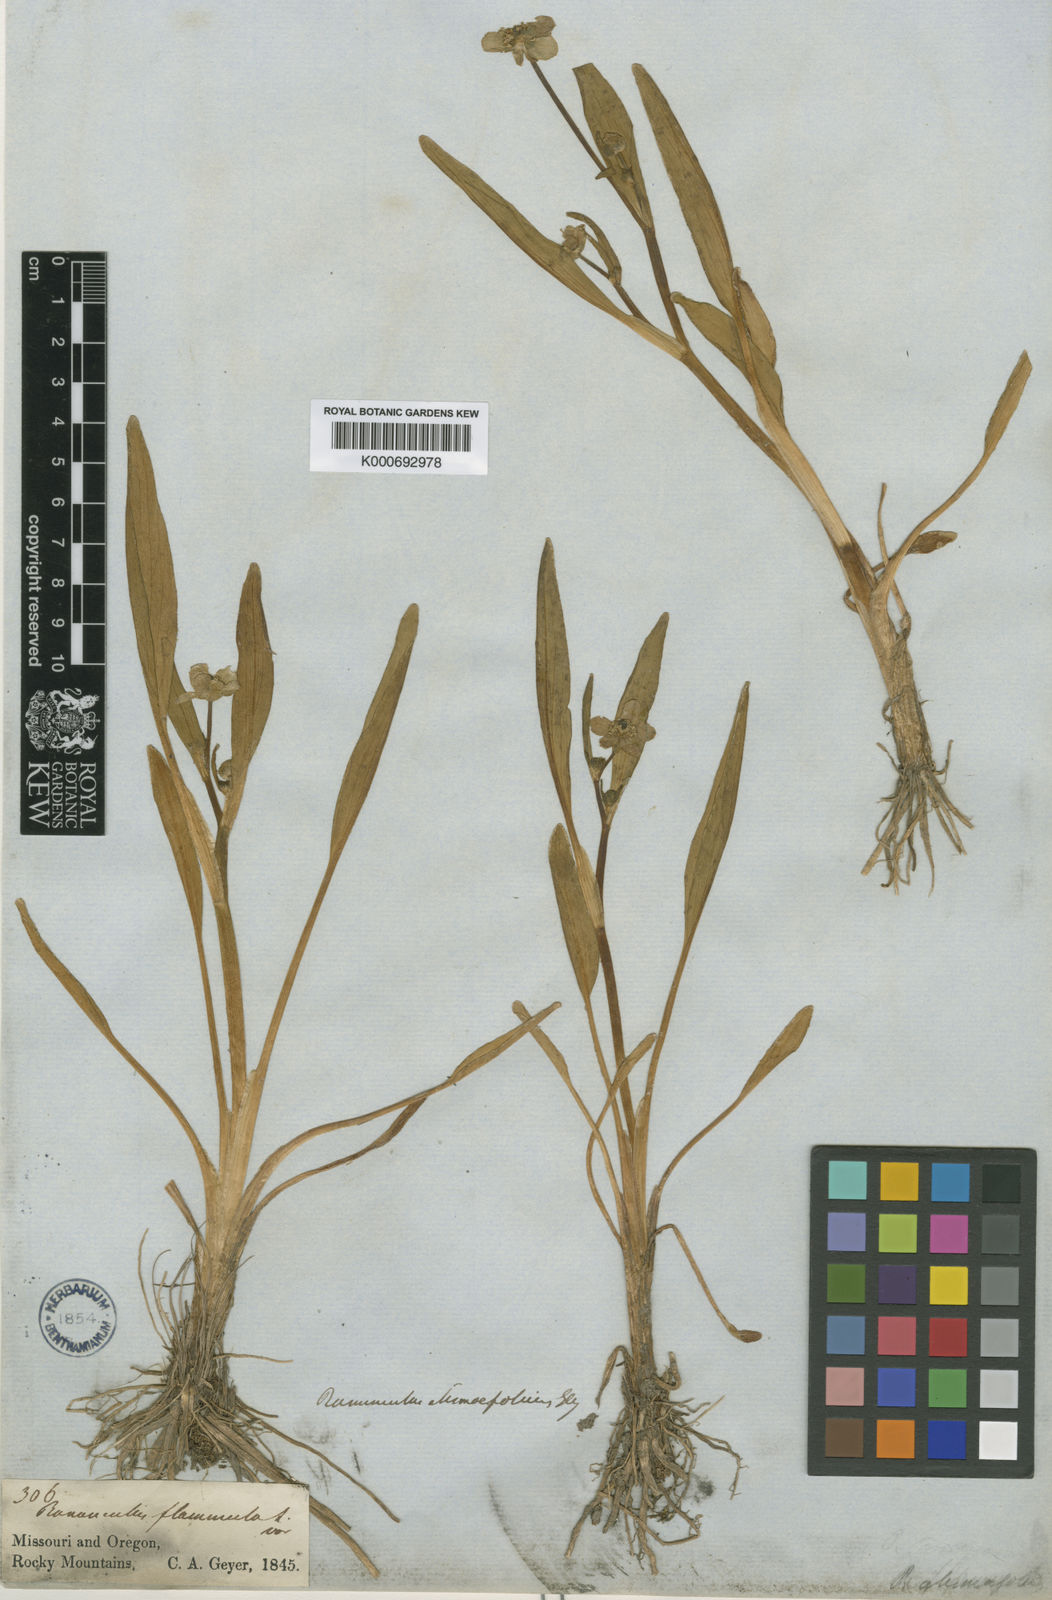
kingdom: Plantae
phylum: Tracheophyta
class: Magnoliopsida
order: Ranunculales
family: Ranunculaceae
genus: Ranunculus
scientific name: Ranunculus alismifolius
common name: Plantain-leaved buttercup
